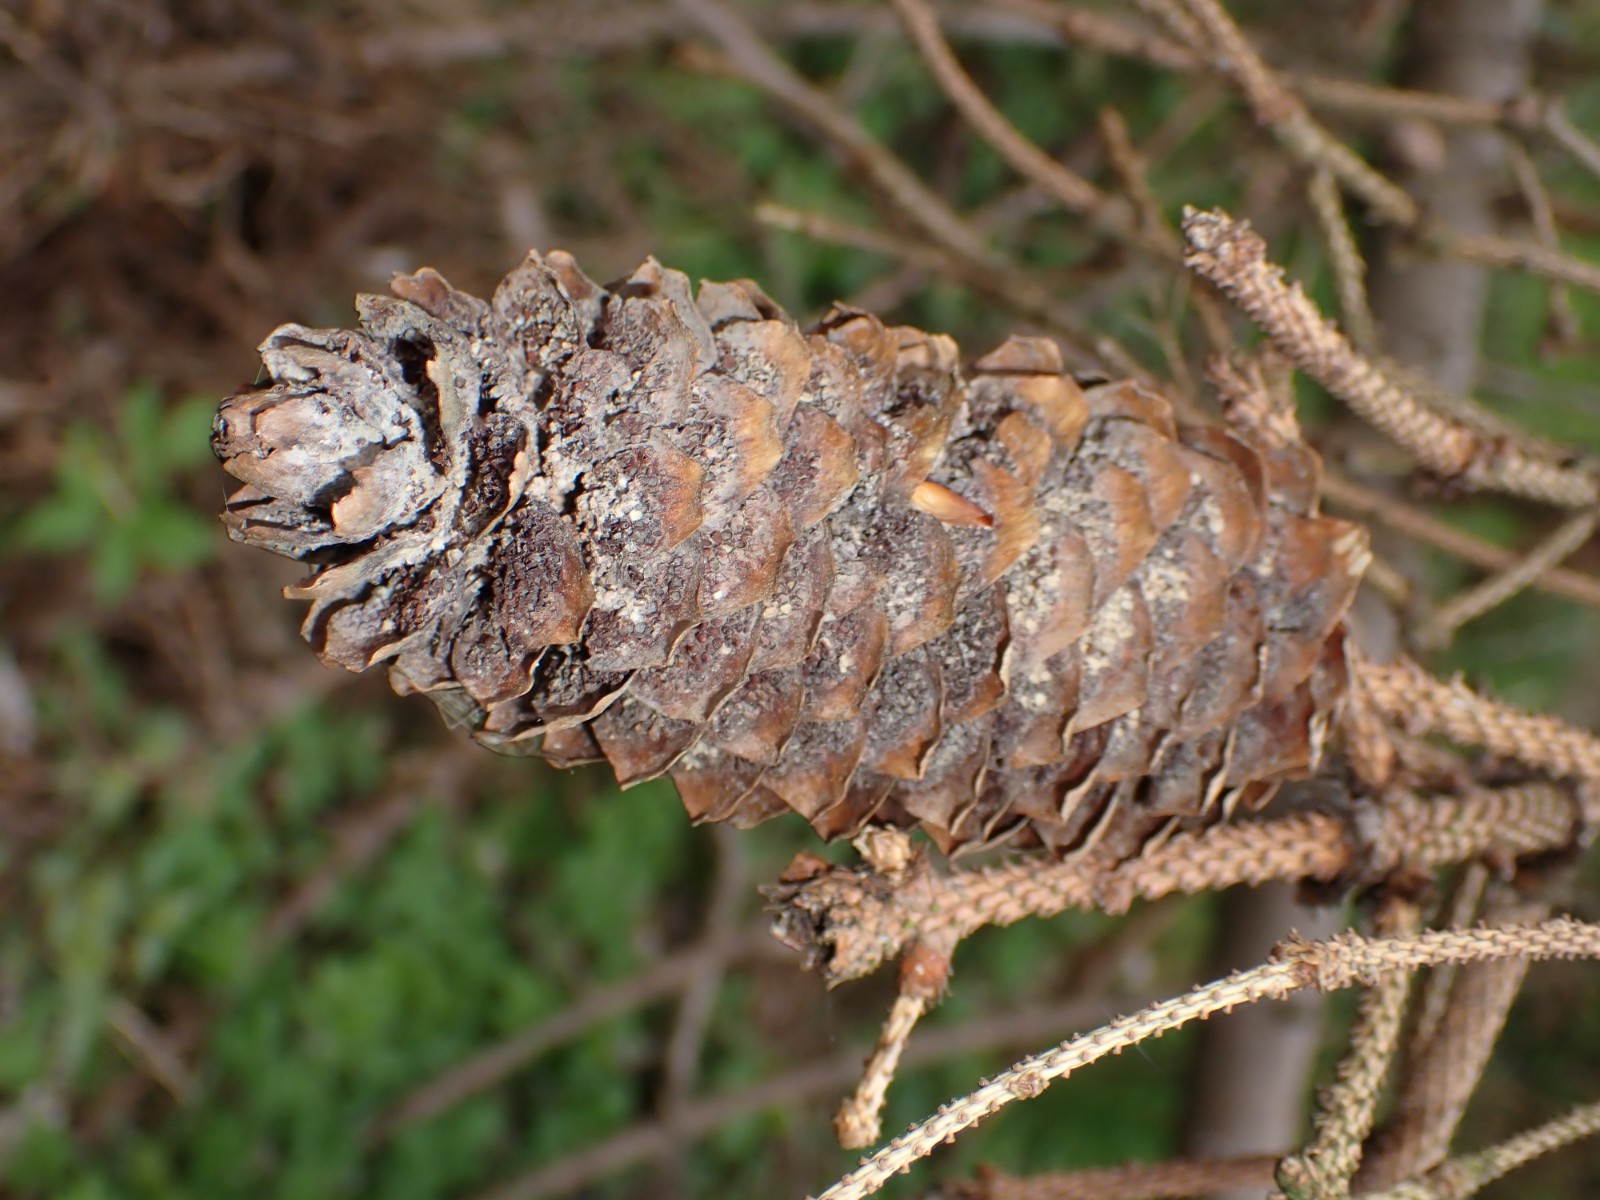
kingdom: Fungi
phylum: Basidiomycota
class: Pucciniomycetes
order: Pucciniales
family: Pucciniastraceae
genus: Thekopsora
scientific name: Thekopsora areolata
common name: grankogle-nålerust
